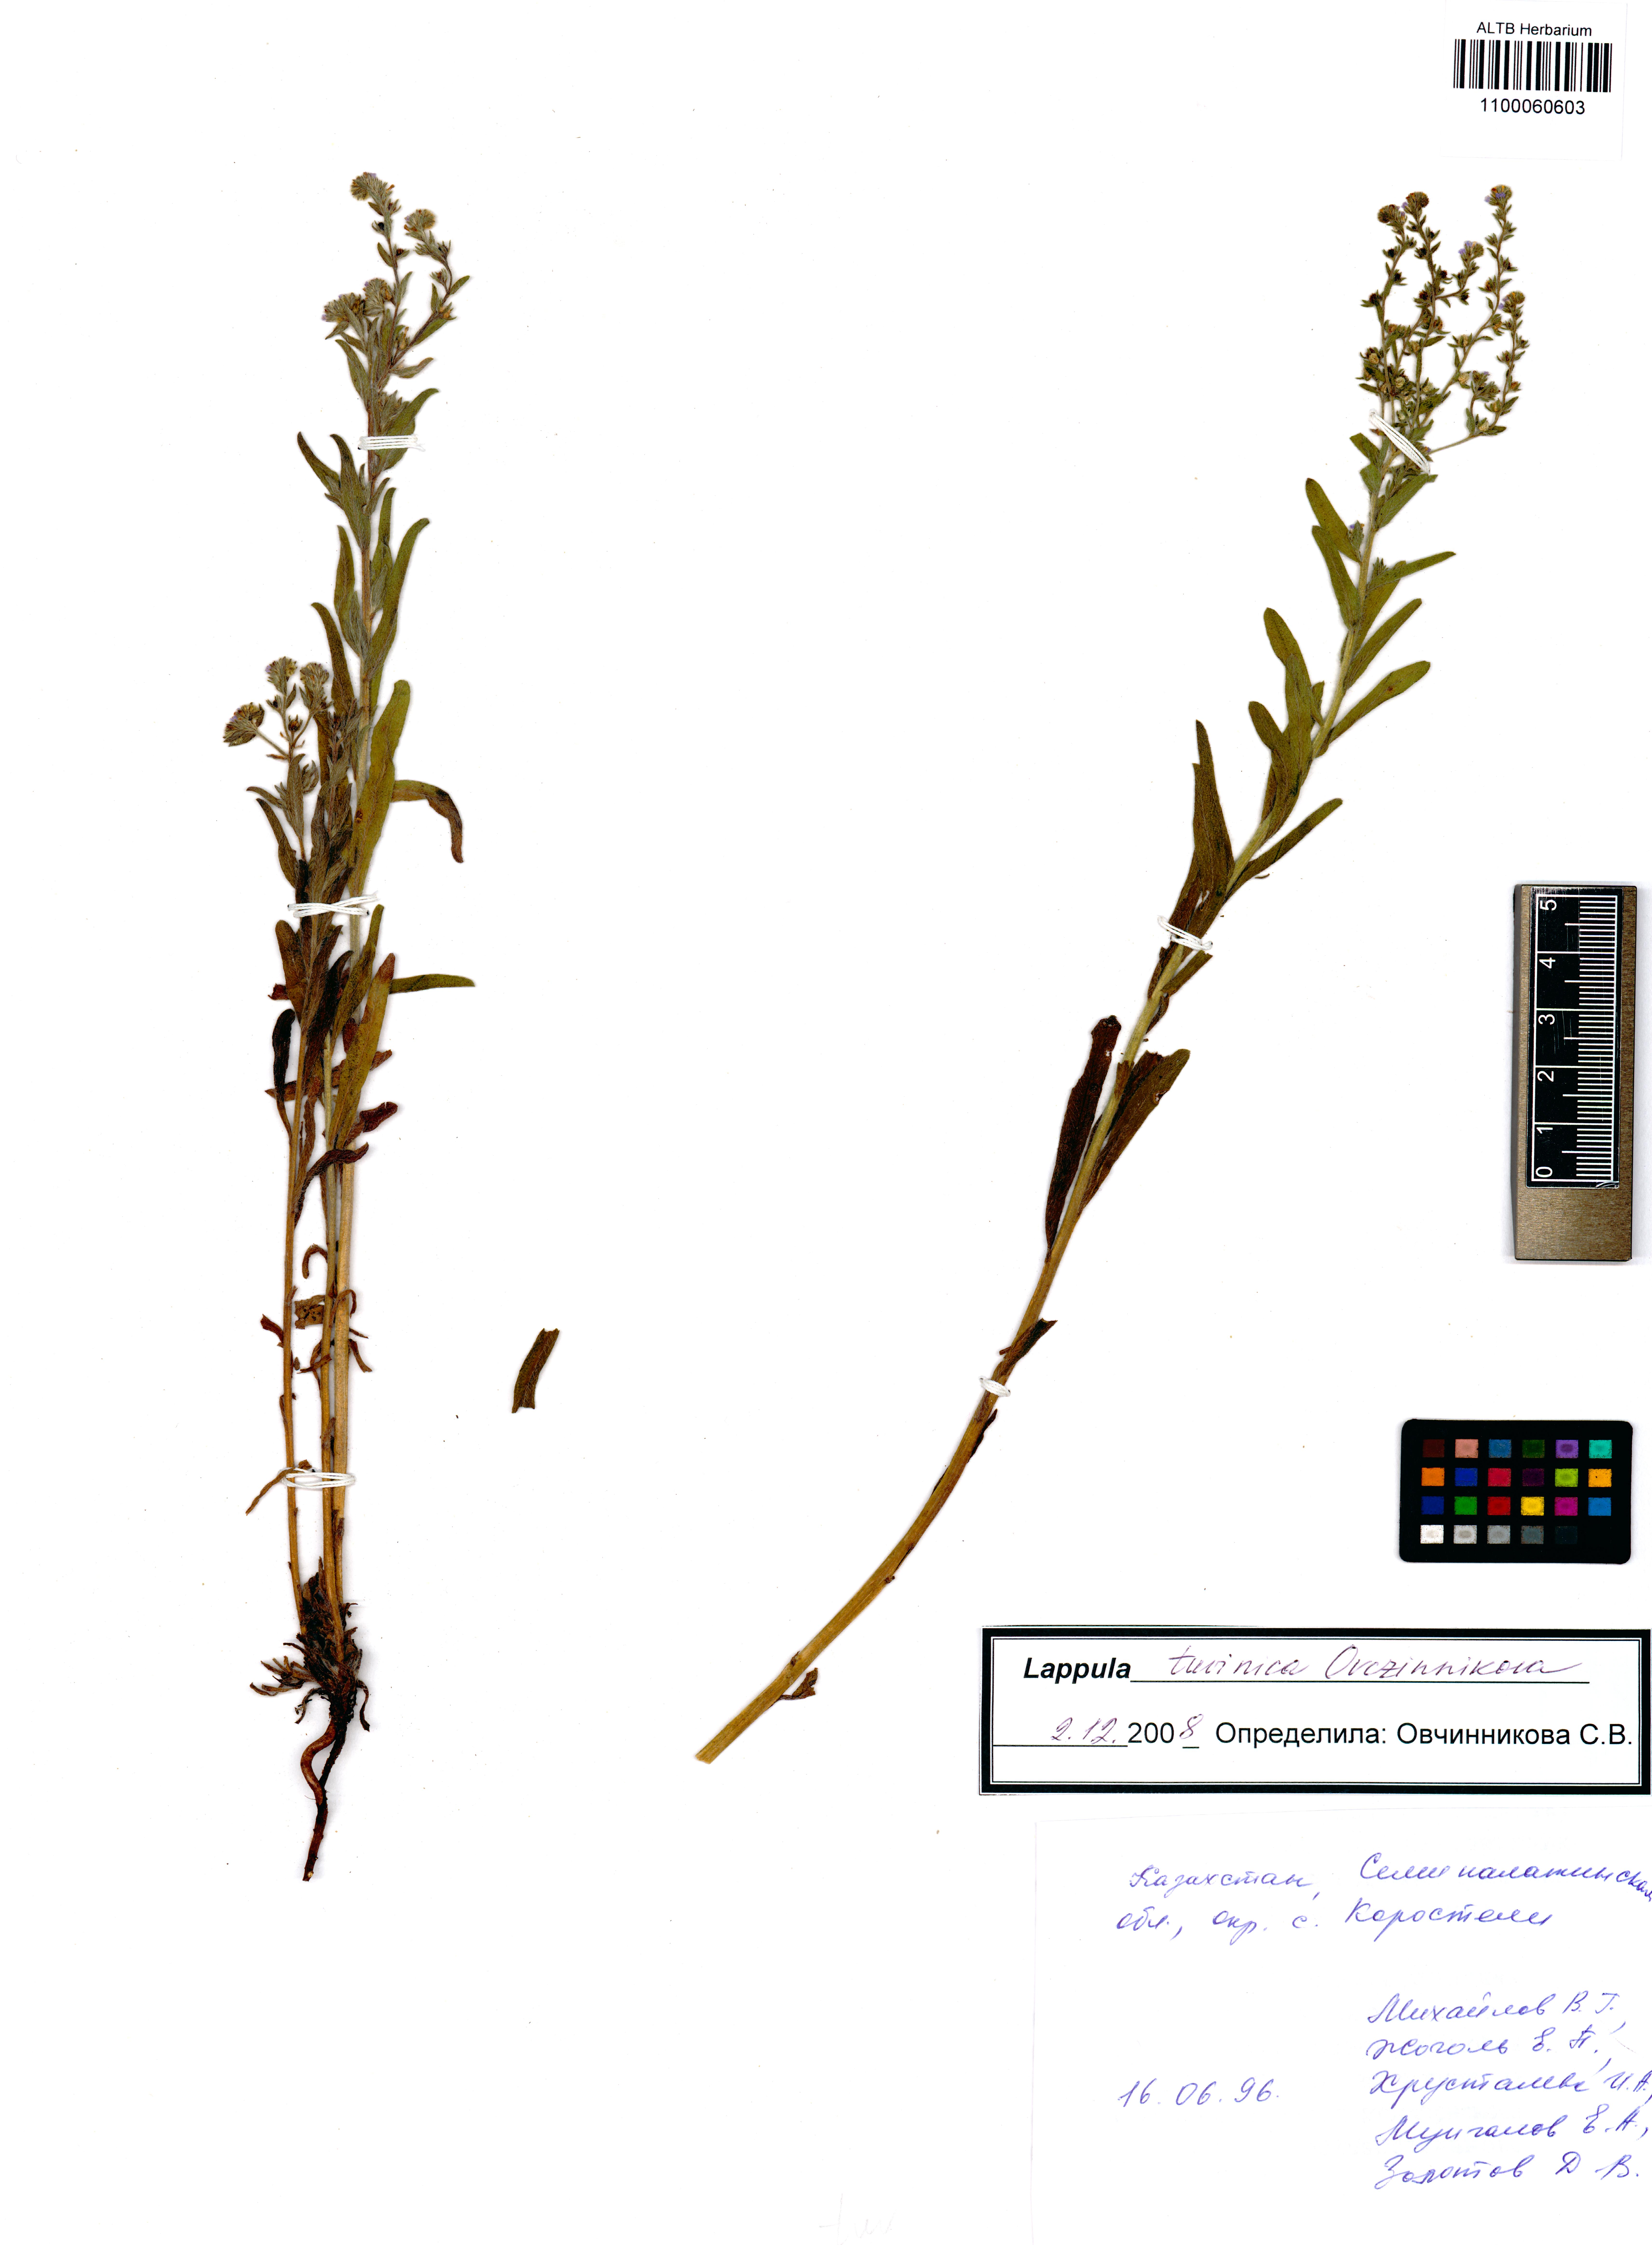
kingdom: Plantae
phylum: Tracheophyta
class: Magnoliopsida
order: Boraginales
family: Boraginaceae
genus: Lappula
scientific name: Lappula tuvinica
